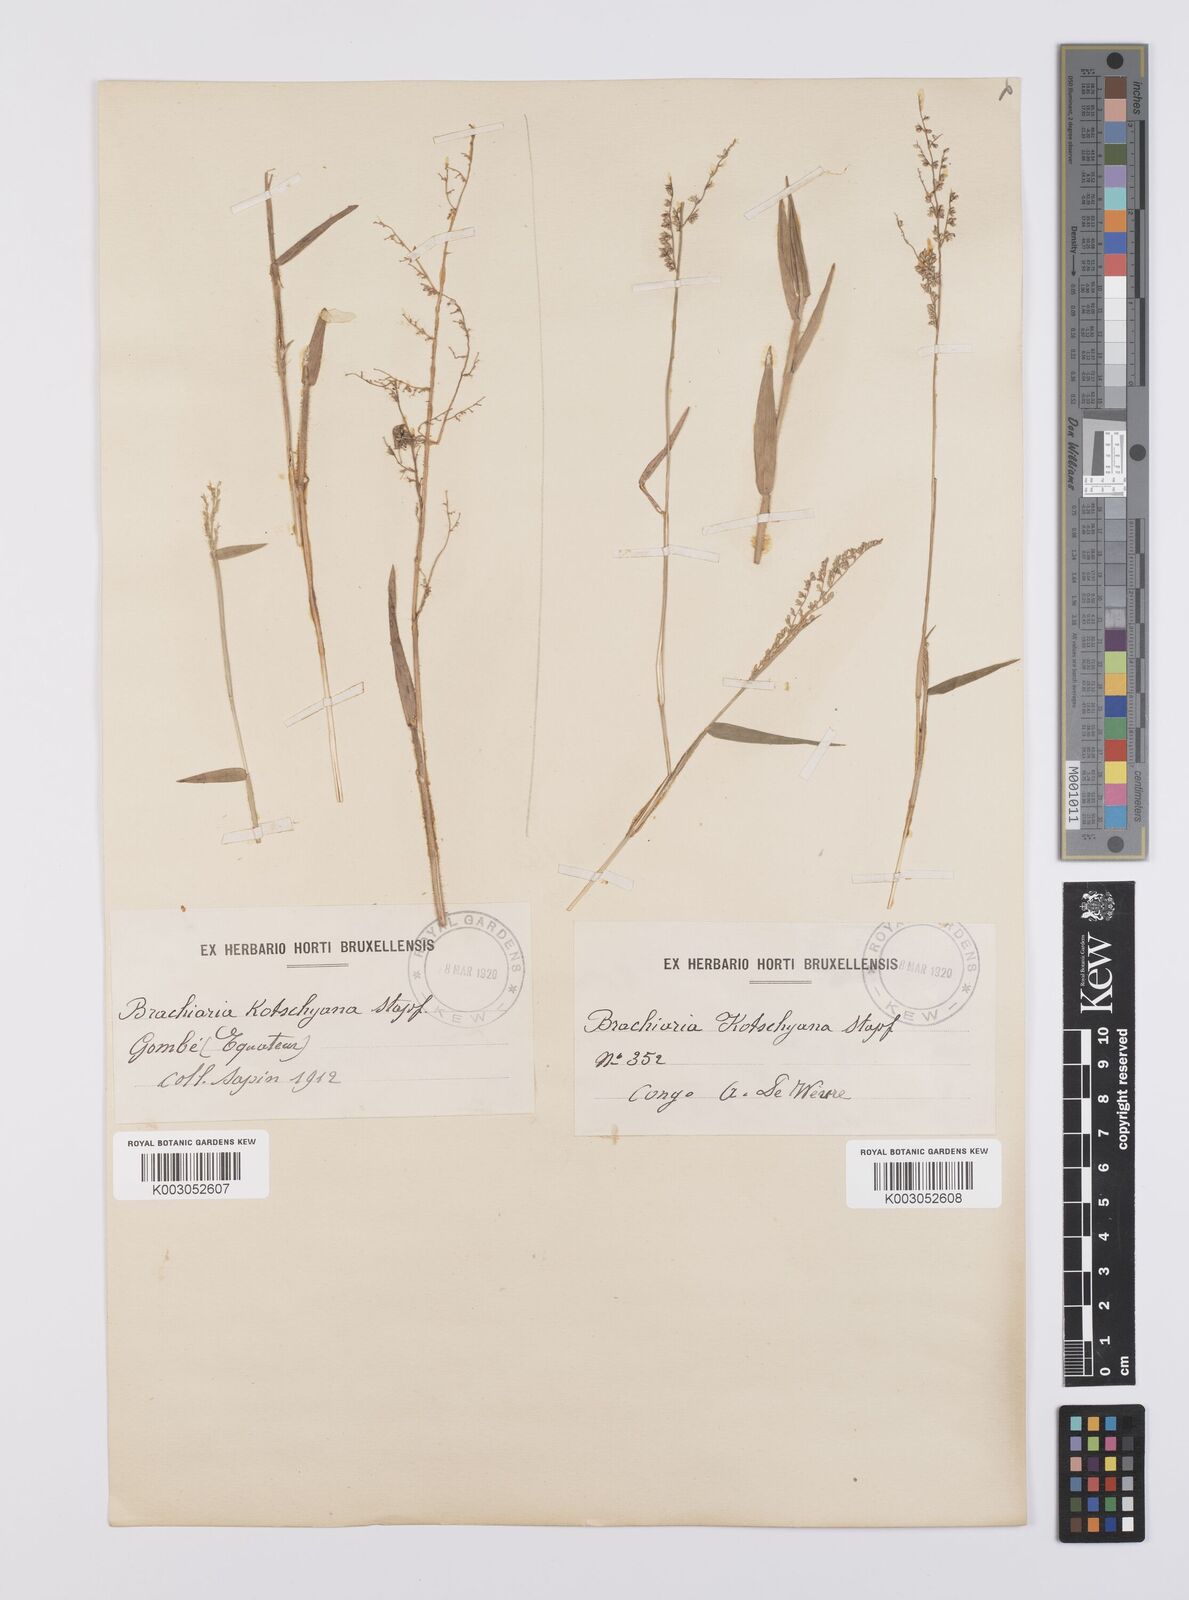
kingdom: Plantae
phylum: Tracheophyta
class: Liliopsida
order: Poales
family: Poaceae
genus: Urochloa
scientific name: Urochloa comata
